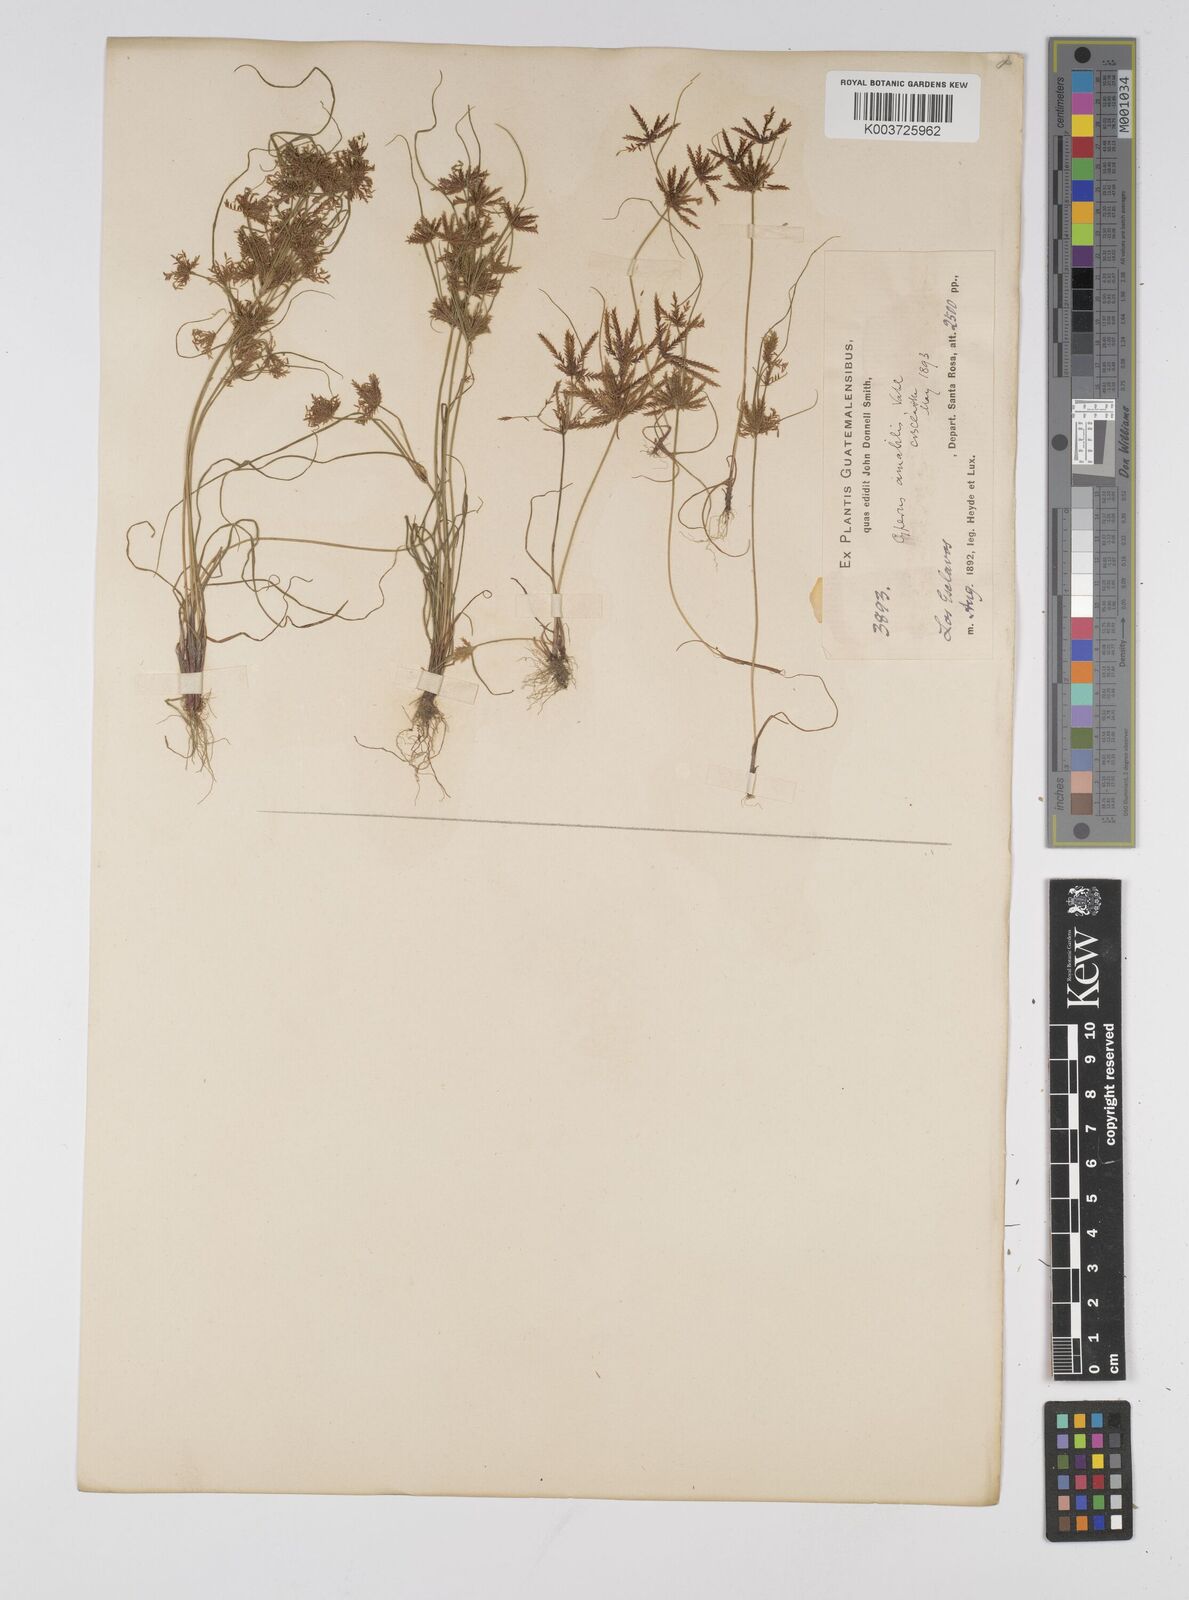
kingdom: Plantae
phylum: Tracheophyta
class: Liliopsida
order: Poales
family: Cyperaceae
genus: Cyperus
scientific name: Cyperus amabilis
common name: Foothill flat sedge
